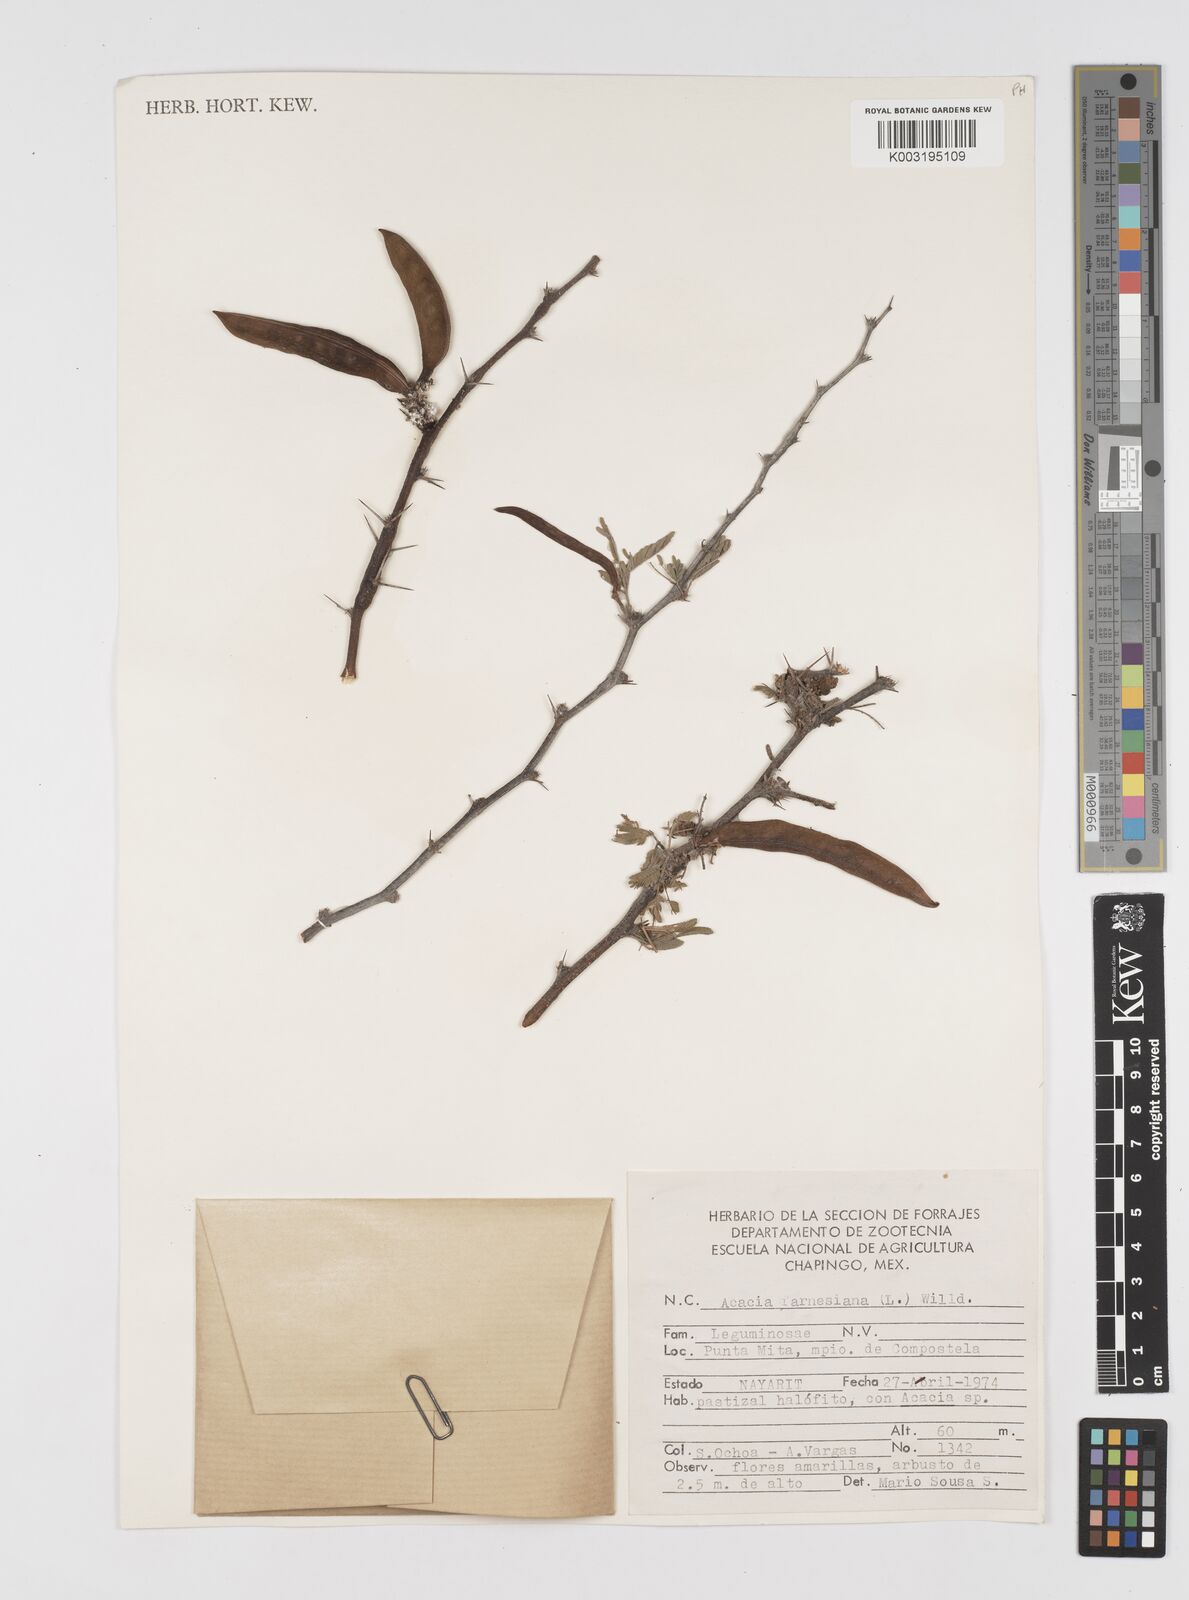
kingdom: Plantae
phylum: Tracheophyta
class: Magnoliopsida
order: Fabales
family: Fabaceae
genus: Vachellia
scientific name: Vachellia farnesiana
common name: Sweet acacia
